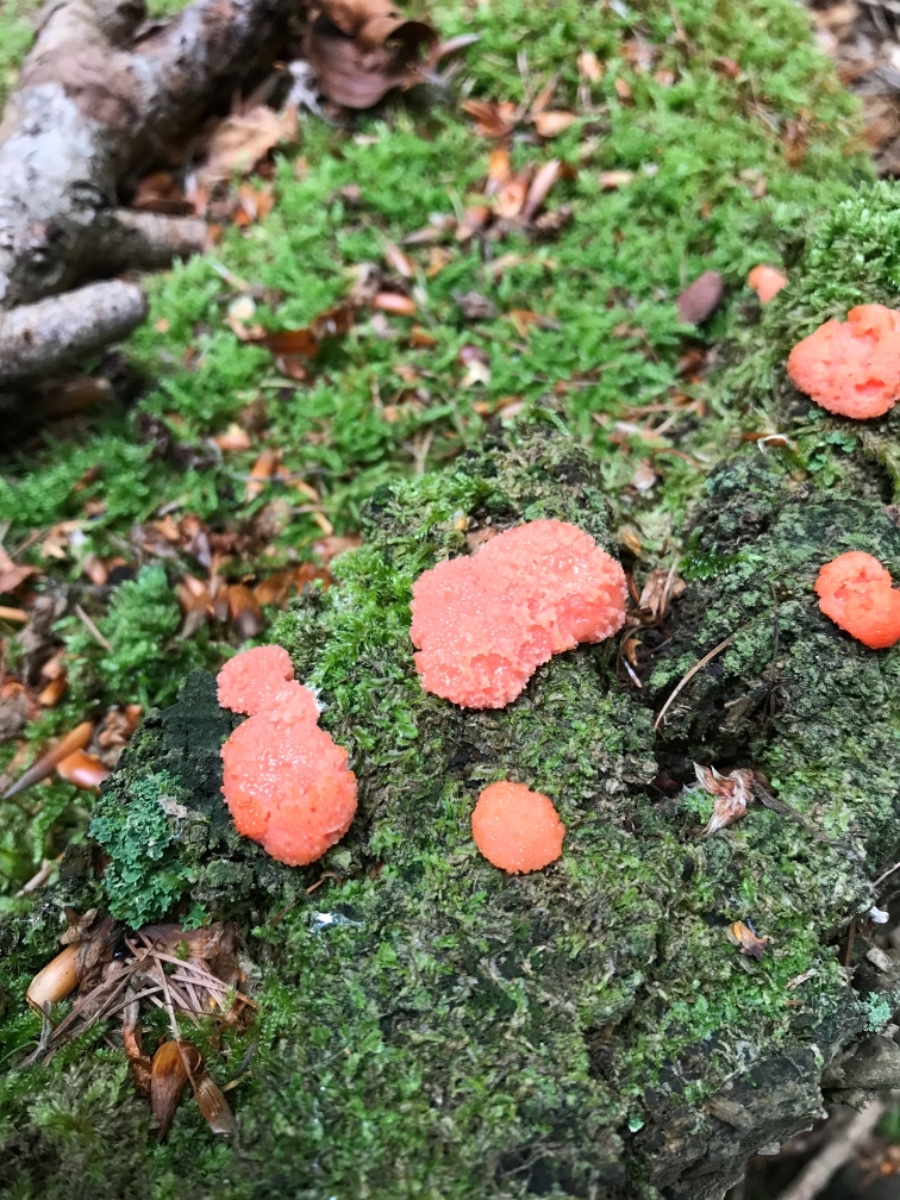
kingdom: Protozoa
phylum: Mycetozoa
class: Myxomycetes
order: Cribrariales
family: Tubiferaceae
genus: Tubifera
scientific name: Tubifera ferruginosa
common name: kanel-støvrør
